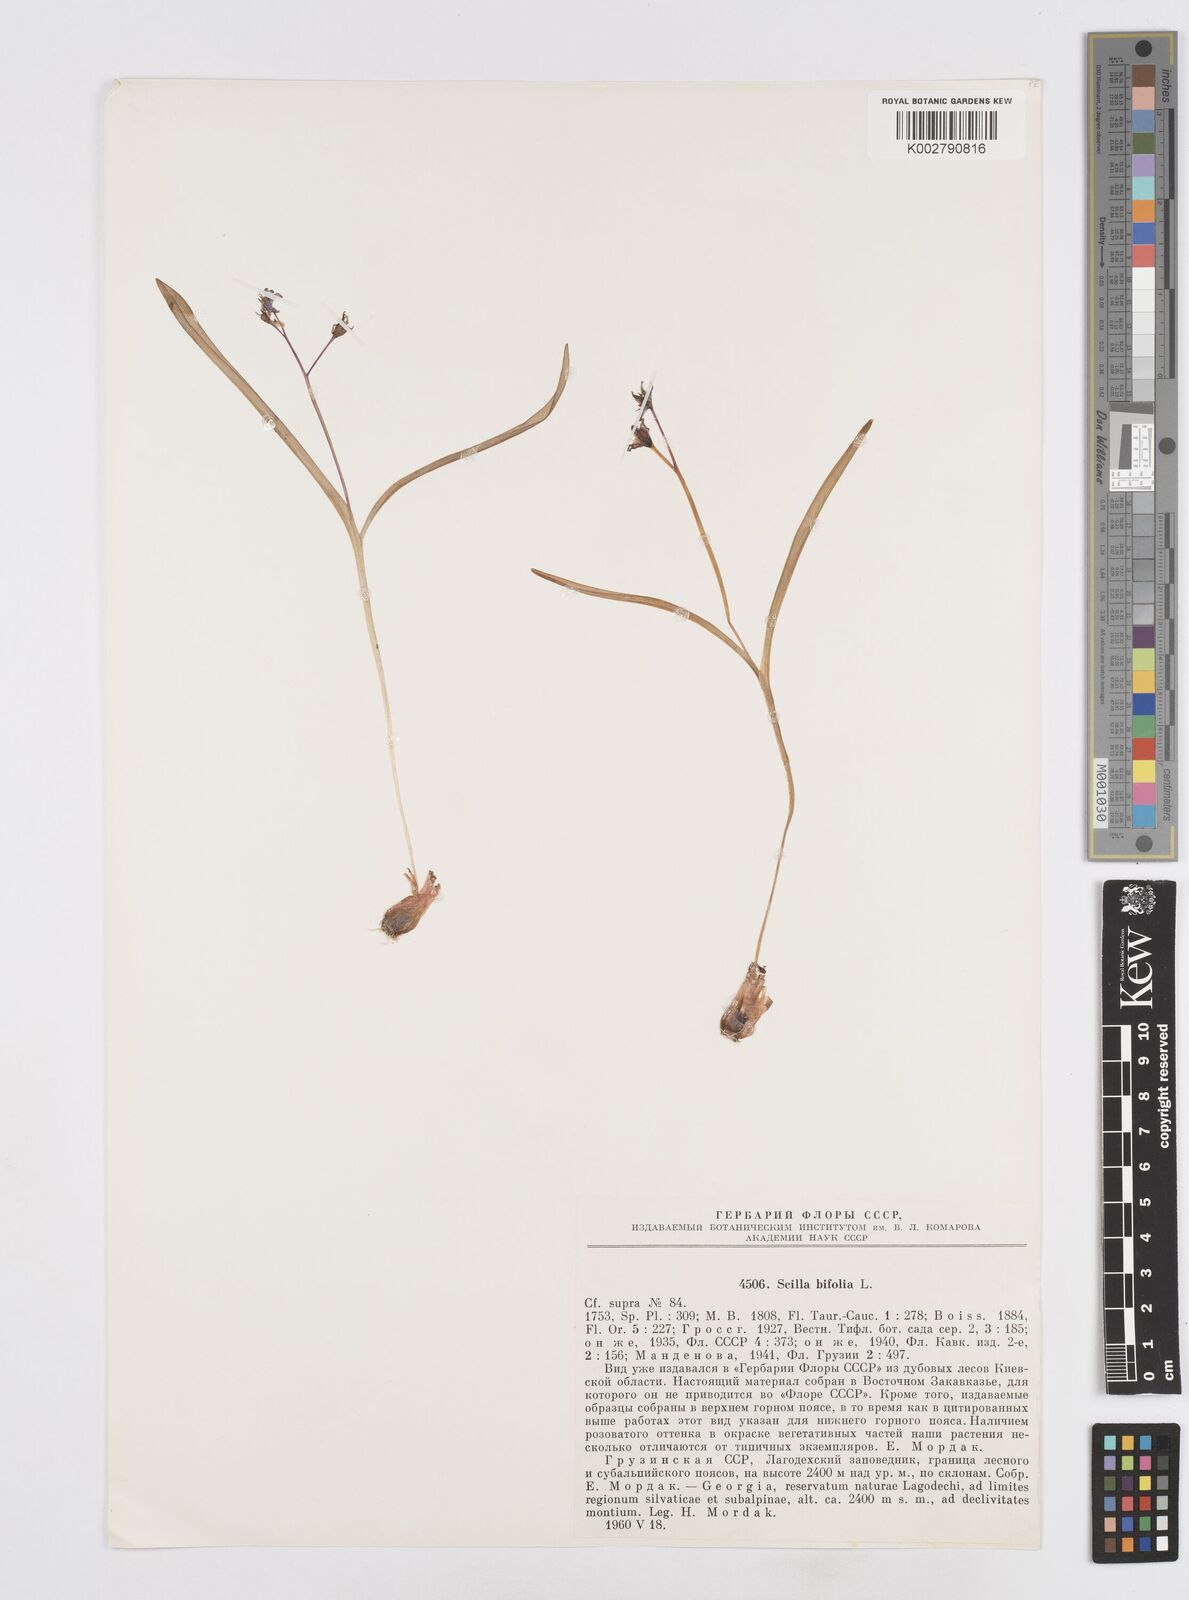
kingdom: Plantae
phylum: Tracheophyta
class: Liliopsida
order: Asparagales
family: Asparagaceae
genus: Scilla
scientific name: Scilla bifolia
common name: Alpine squill
